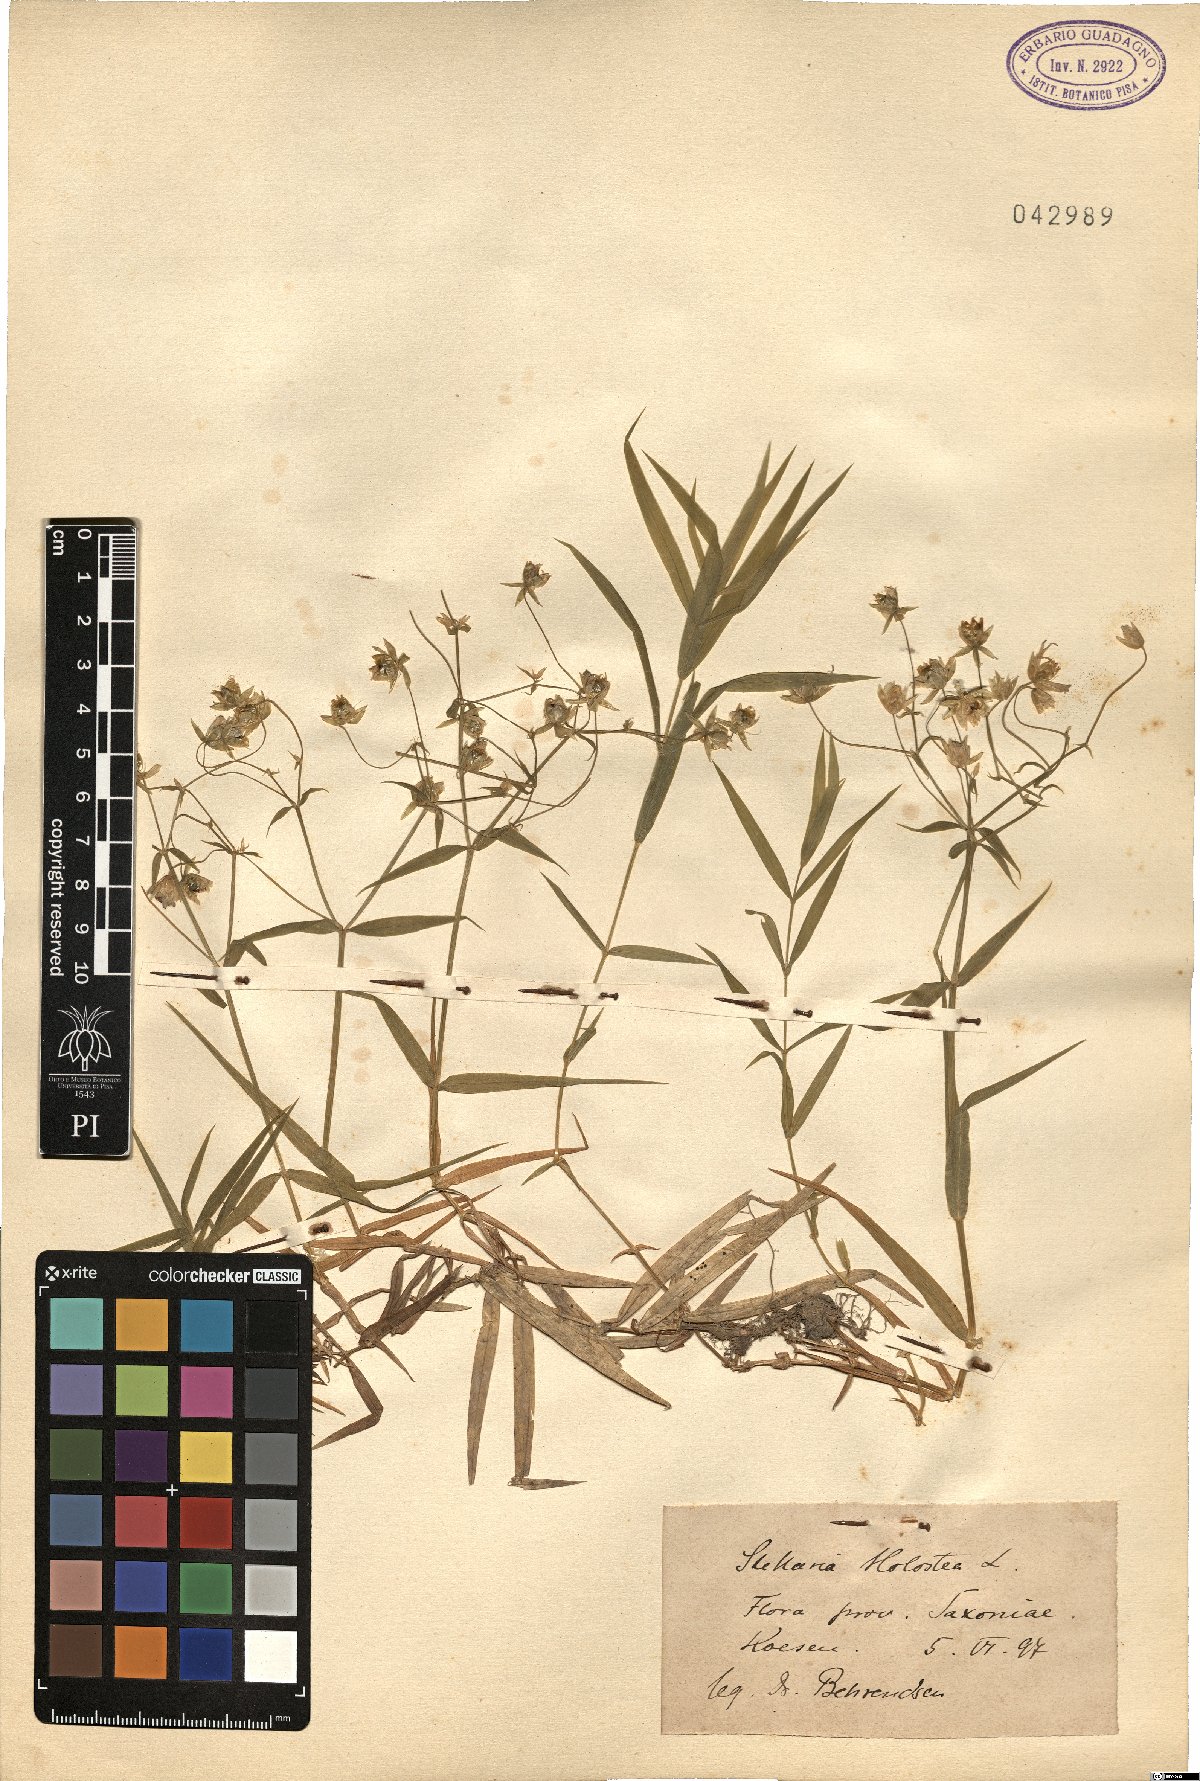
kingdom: Plantae
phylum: Tracheophyta
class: Magnoliopsida
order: Caryophyllales
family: Caryophyllaceae
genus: Rabelera
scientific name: Rabelera holostea
